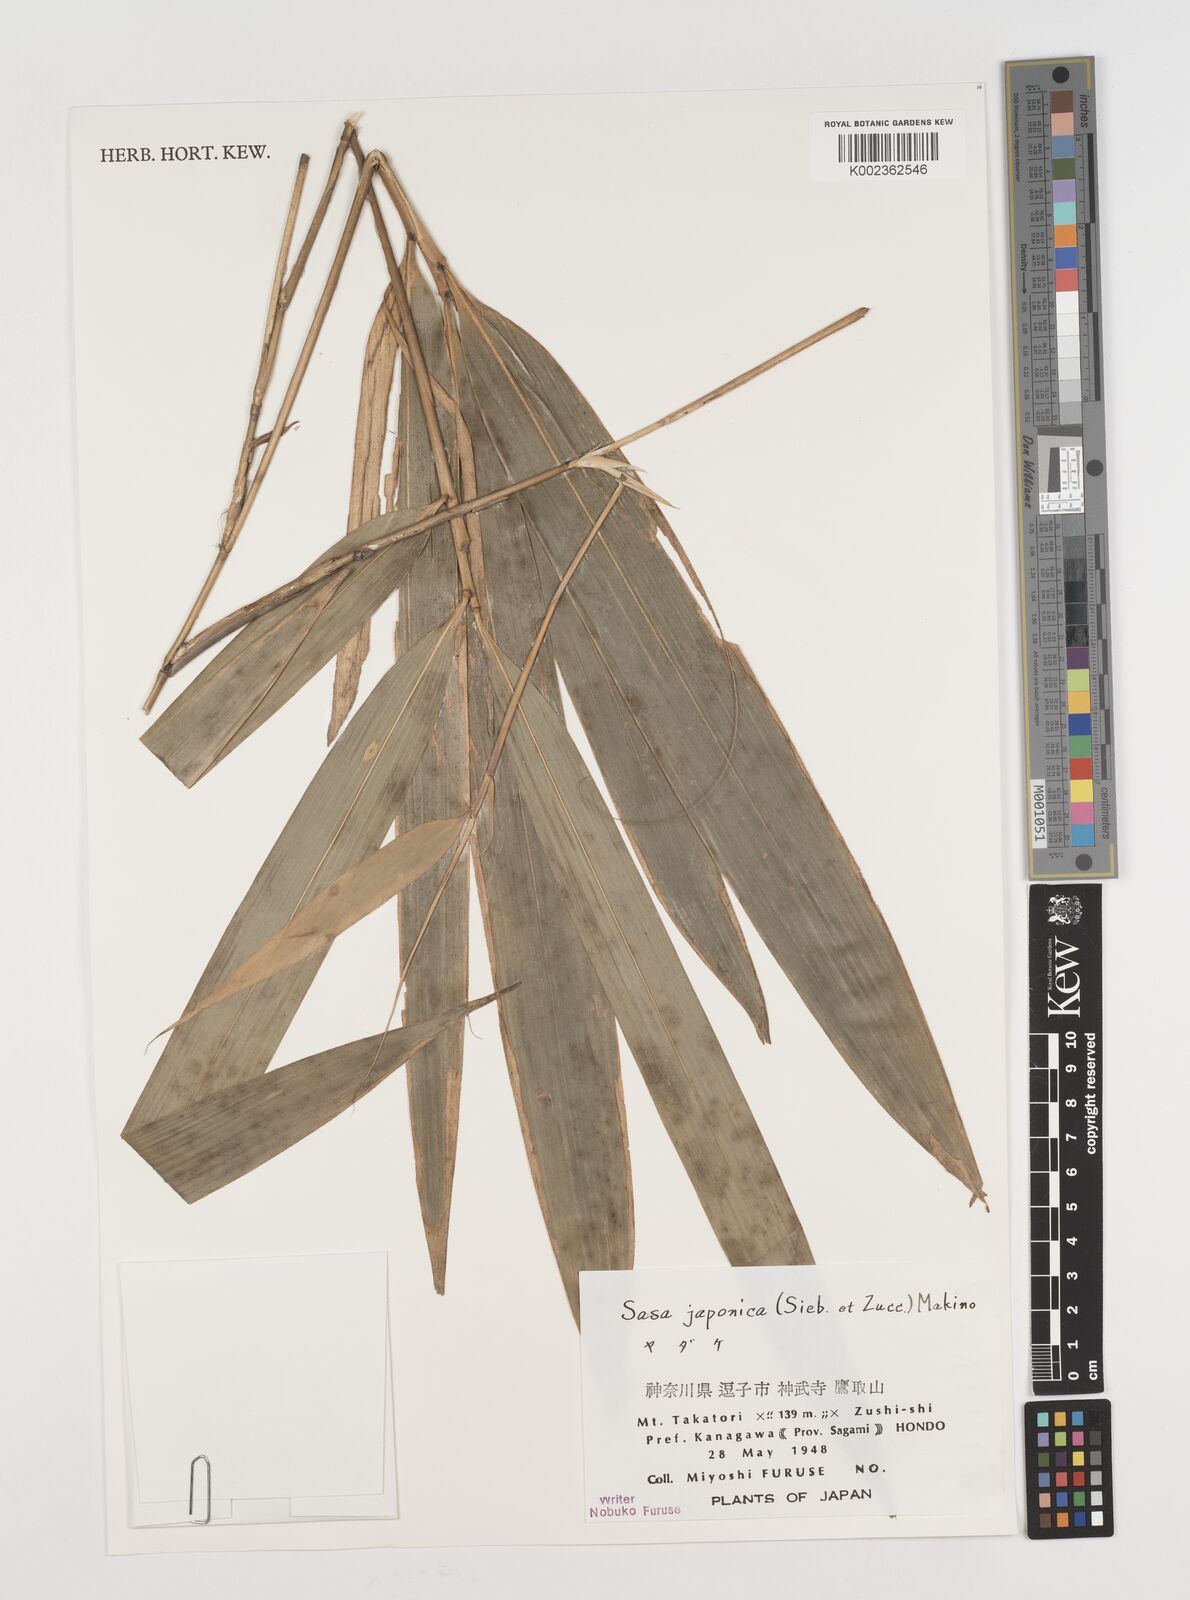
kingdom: Plantae
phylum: Tracheophyta
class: Liliopsida
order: Poales
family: Poaceae
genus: Pseudosasa
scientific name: Pseudosasa japonica
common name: Arrow bamboo
